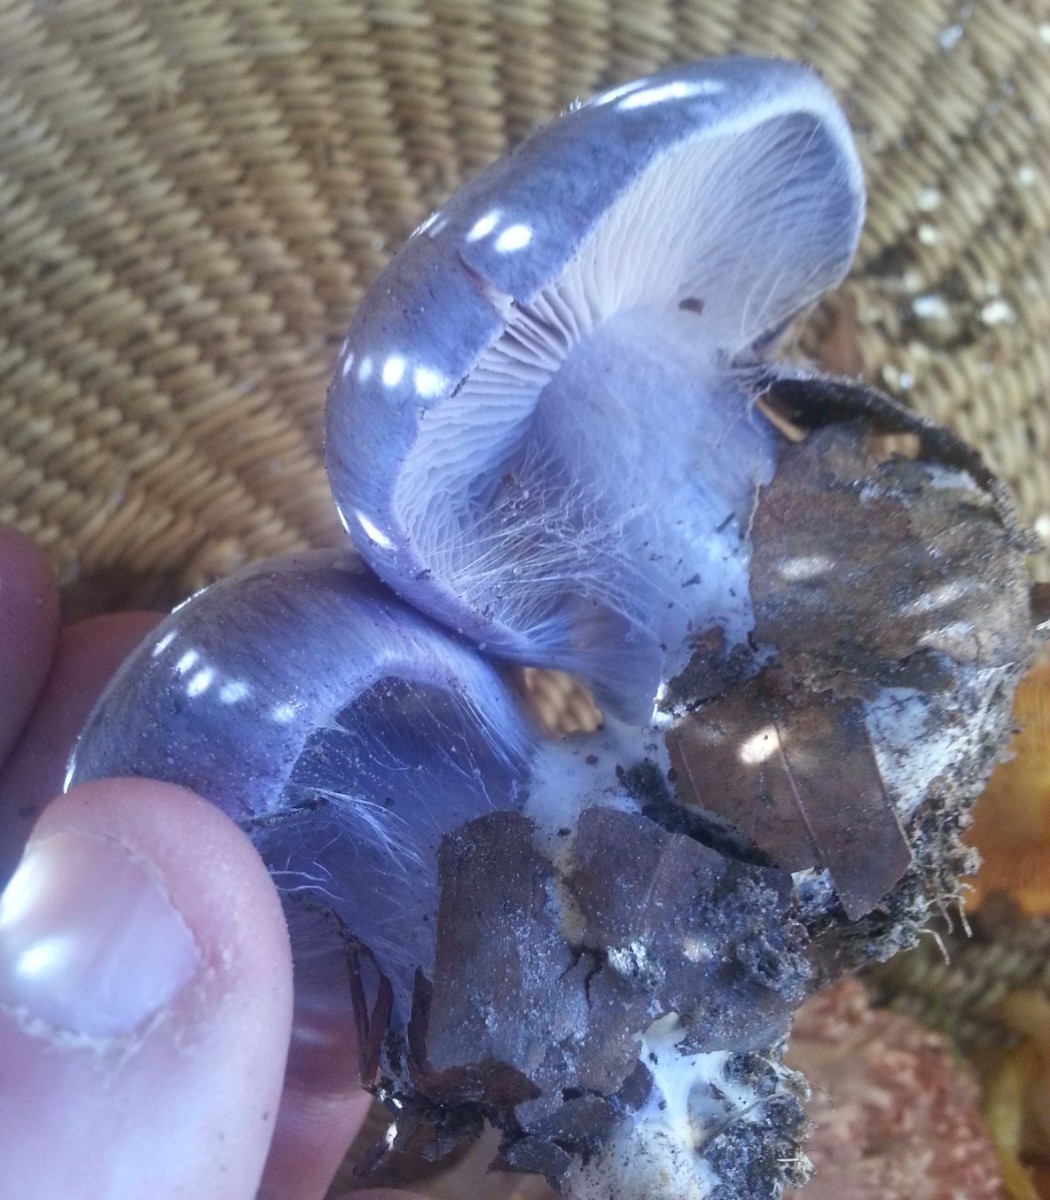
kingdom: Fungi
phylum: Basidiomycota
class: Agaricomycetes
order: Agaricales
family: Cortinariaceae
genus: Cortinarius
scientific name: Cortinarius caerulescens
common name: blåkødet slørhat
